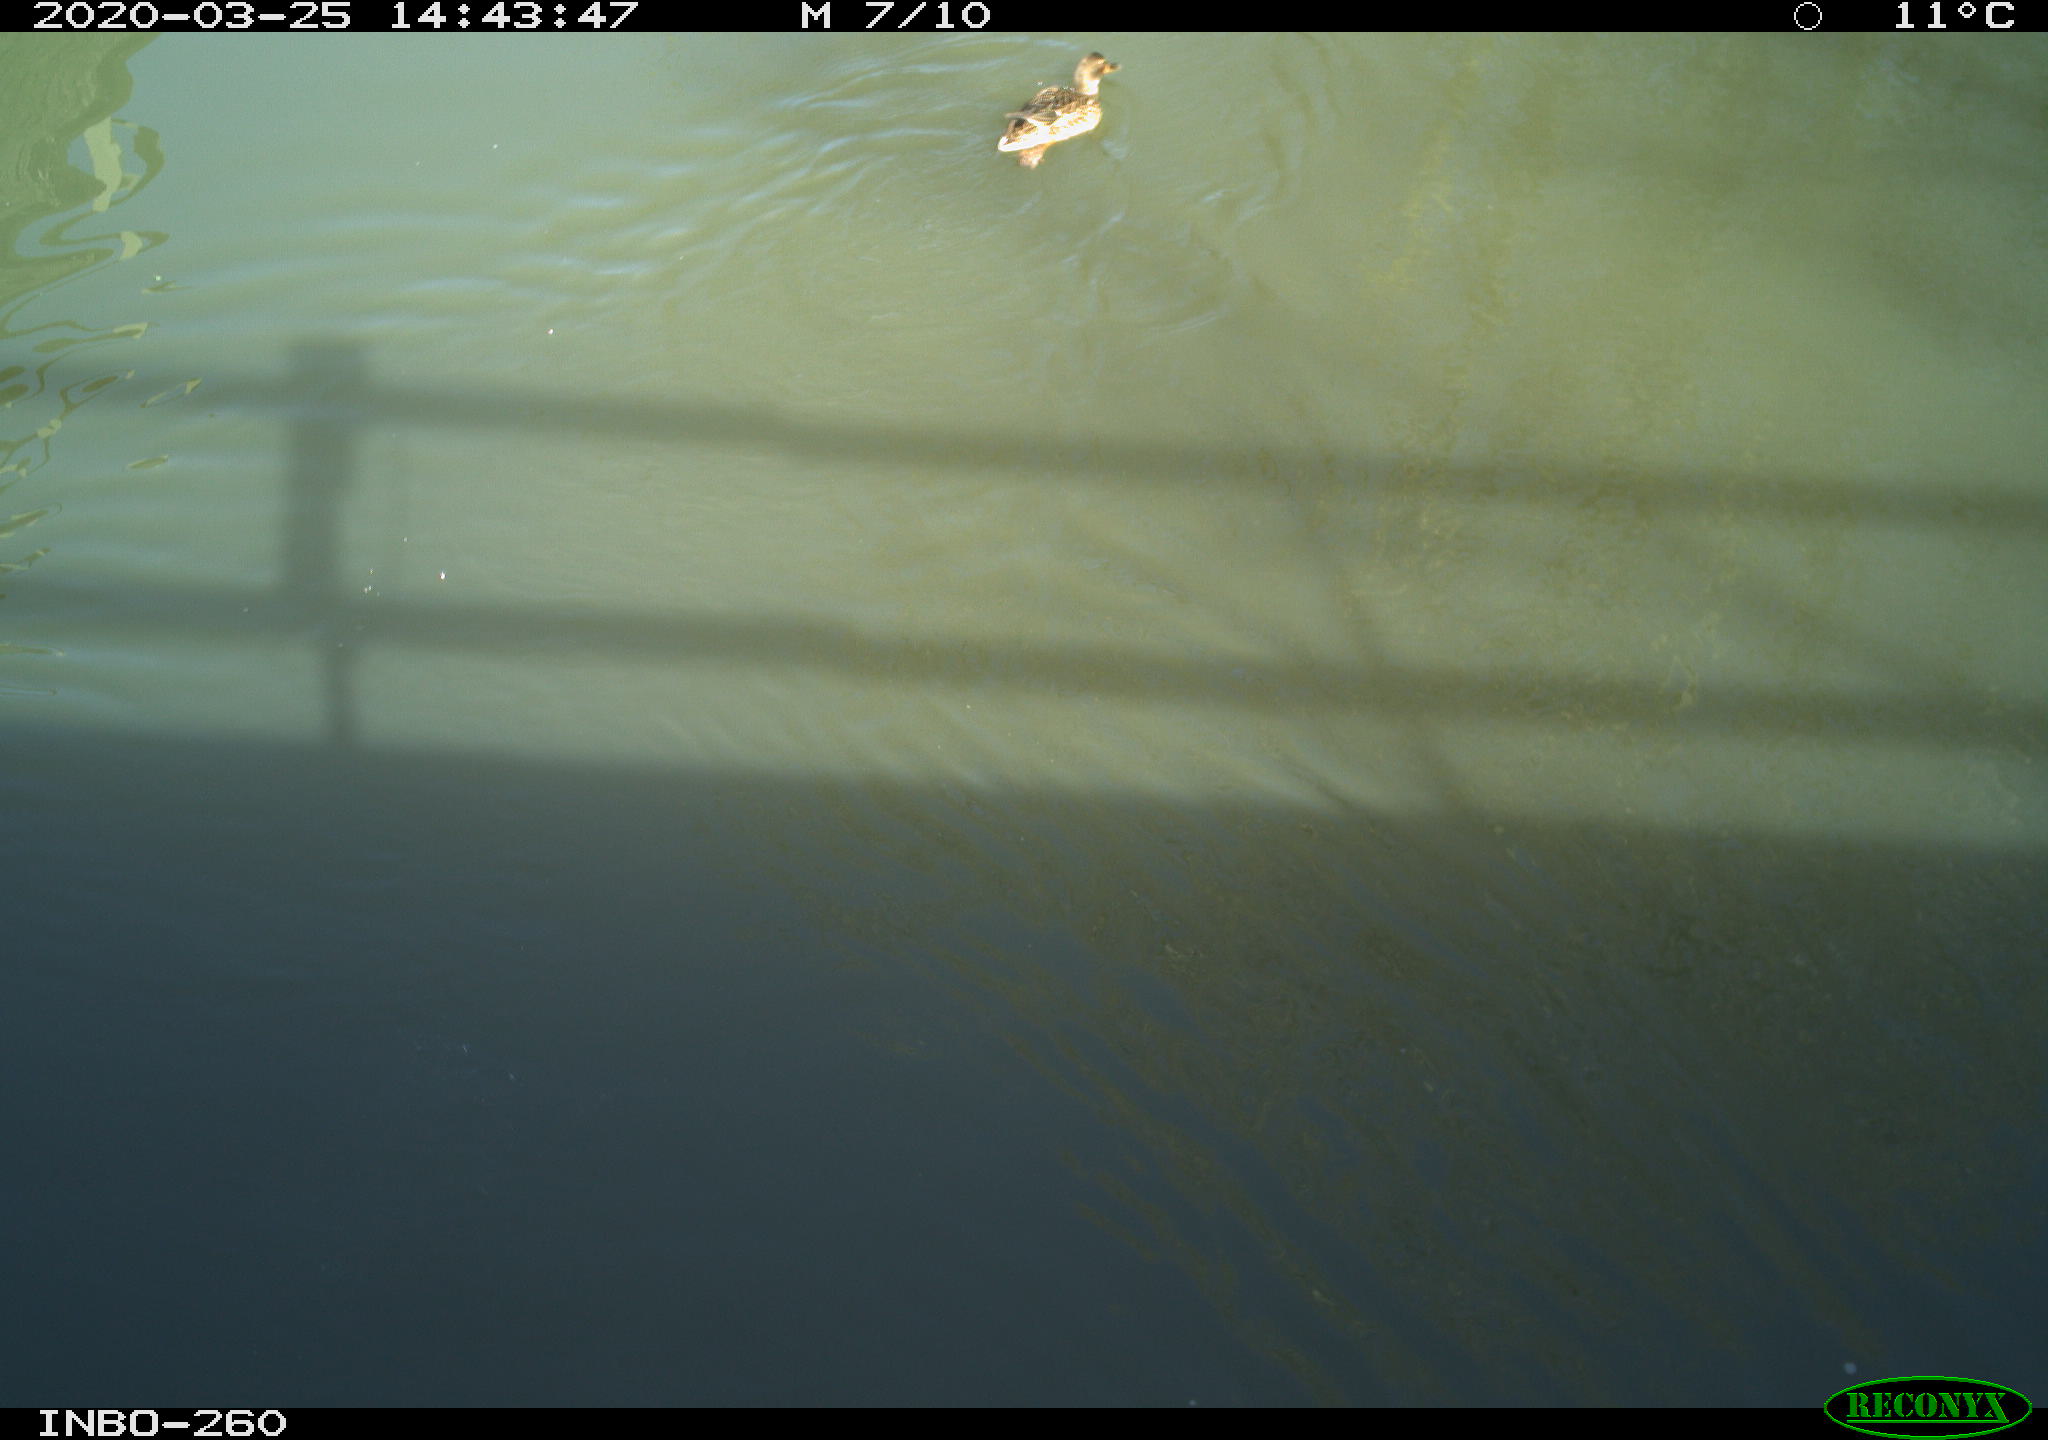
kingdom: Animalia
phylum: Chordata
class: Aves
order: Anseriformes
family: Anatidae
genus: Anas
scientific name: Anas platyrhynchos
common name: Mallard
